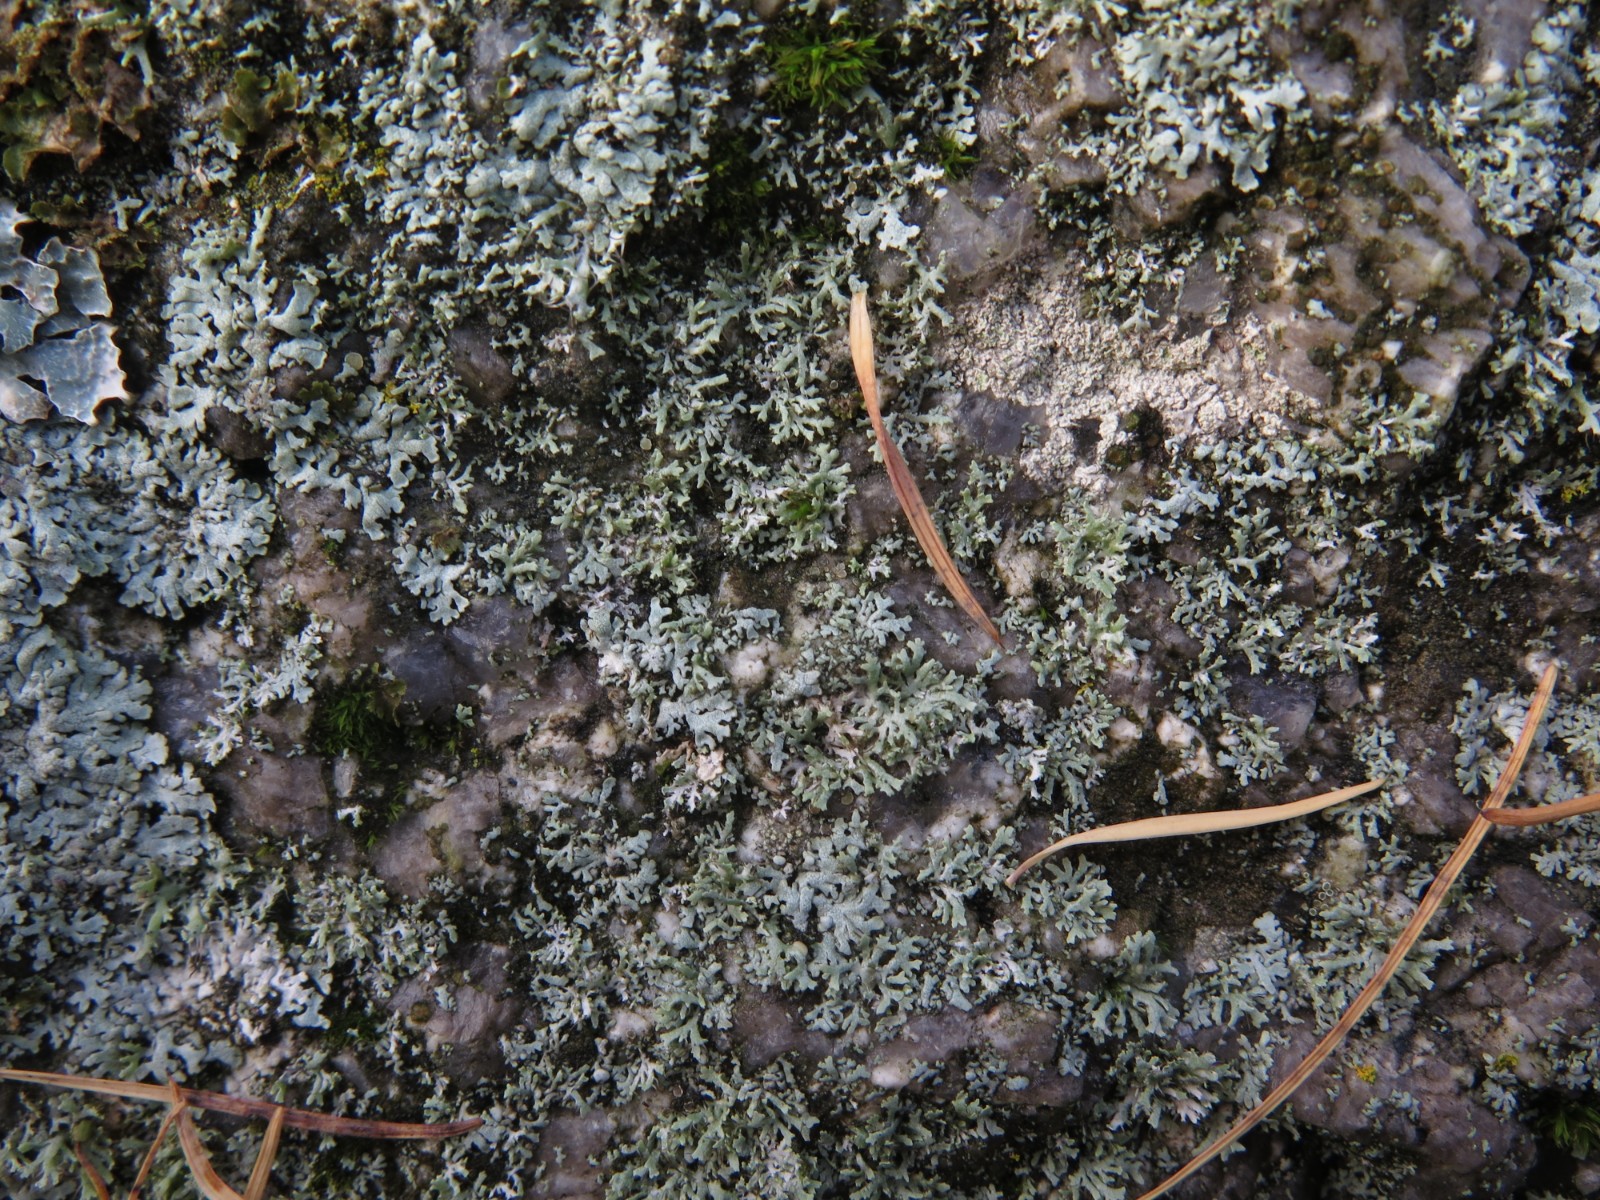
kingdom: Fungi
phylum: Ascomycota
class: Lecanoromycetes
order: Caliciales
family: Physciaceae
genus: Physcia
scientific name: Physcia tenella
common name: spæd rosetlav
